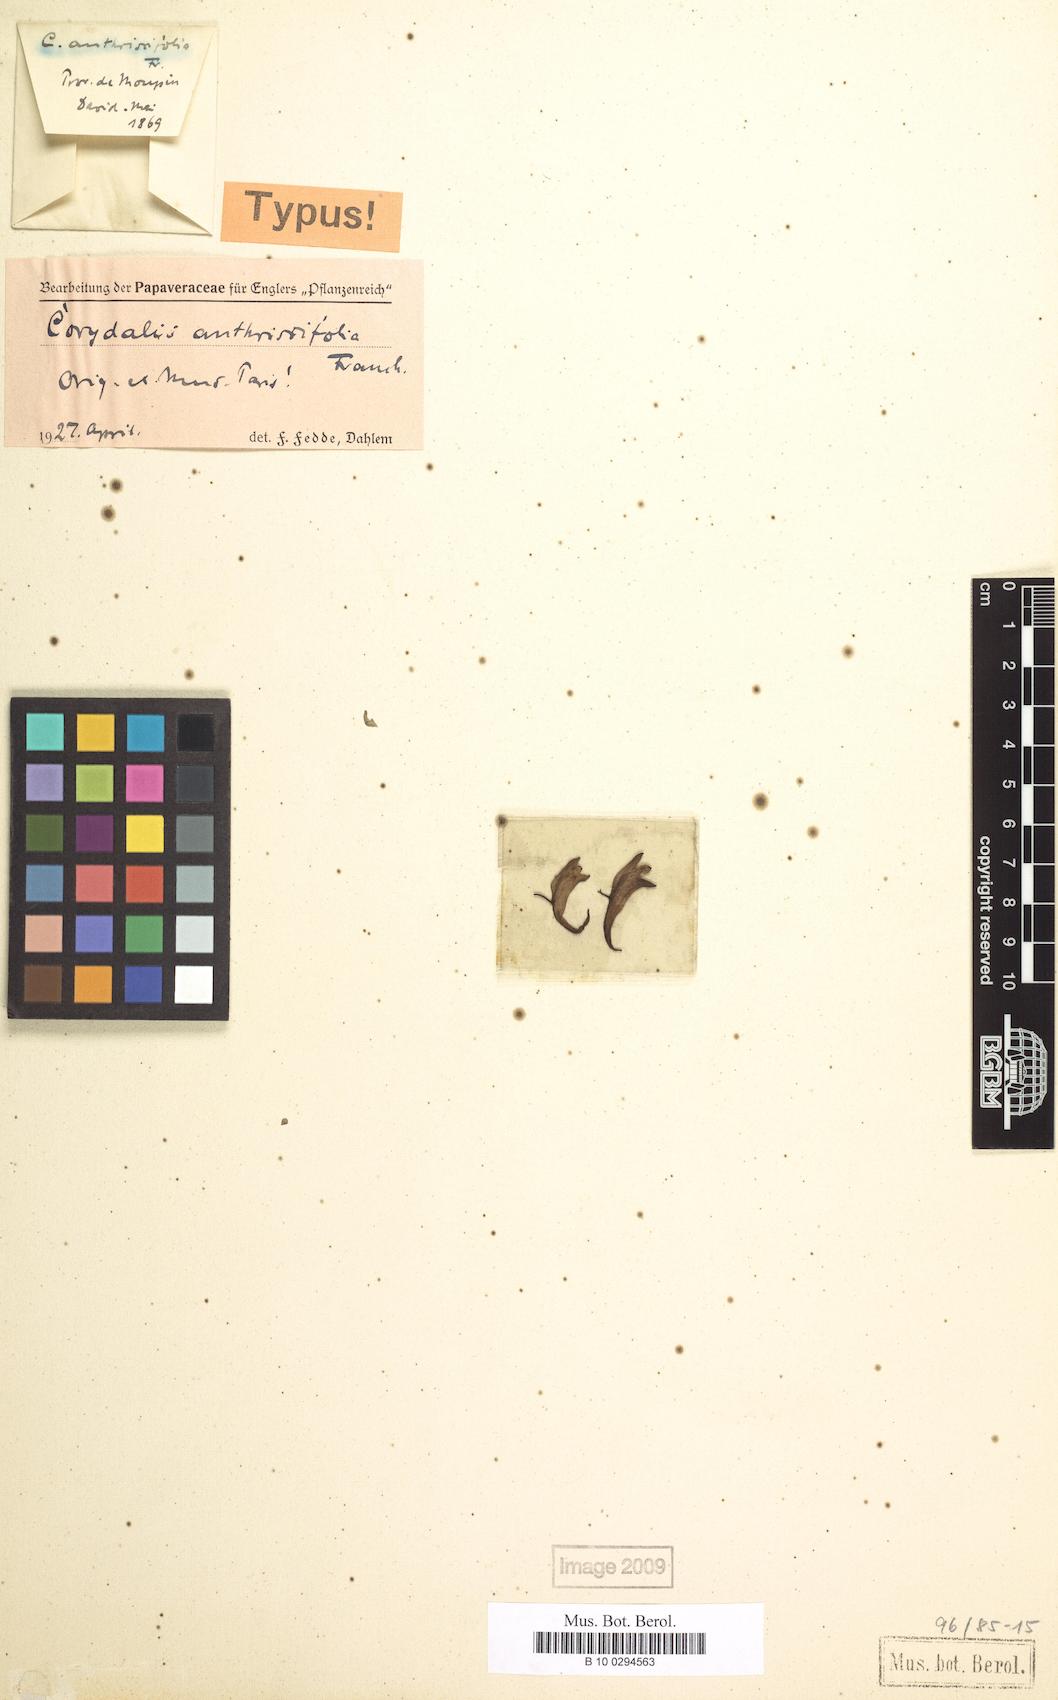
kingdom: Plantae
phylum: Tracheophyta
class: Magnoliopsida
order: Ranunculales
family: Papaveraceae
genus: Corydalis
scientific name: Corydalis anthriscifolia
